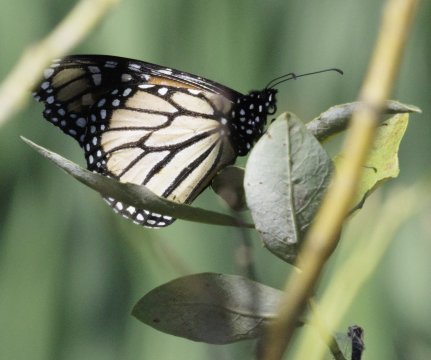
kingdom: Animalia
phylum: Arthropoda
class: Insecta
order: Lepidoptera
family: Nymphalidae
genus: Danaus
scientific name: Danaus plexippus
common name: Monarch
